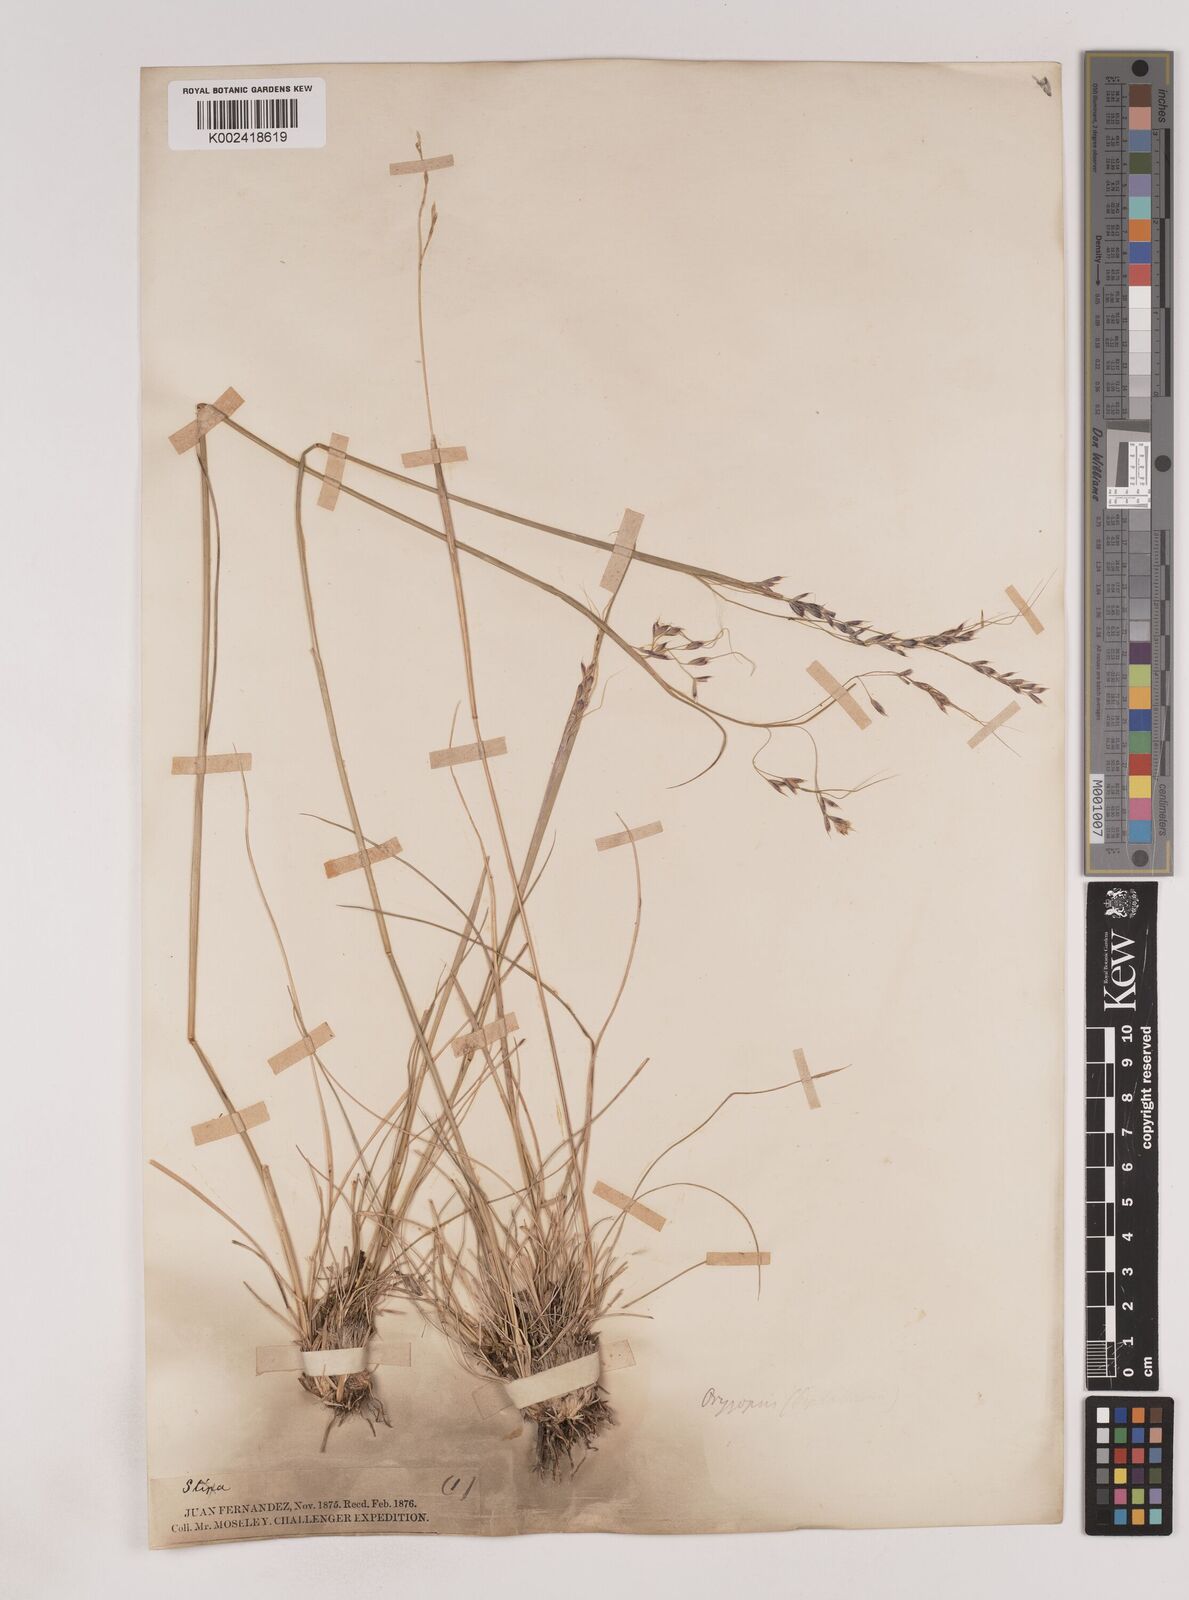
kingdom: Plantae
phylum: Tracheophyta
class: Liliopsida
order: Poales
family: Poaceae
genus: Piptochaetium
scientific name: Piptochaetium
